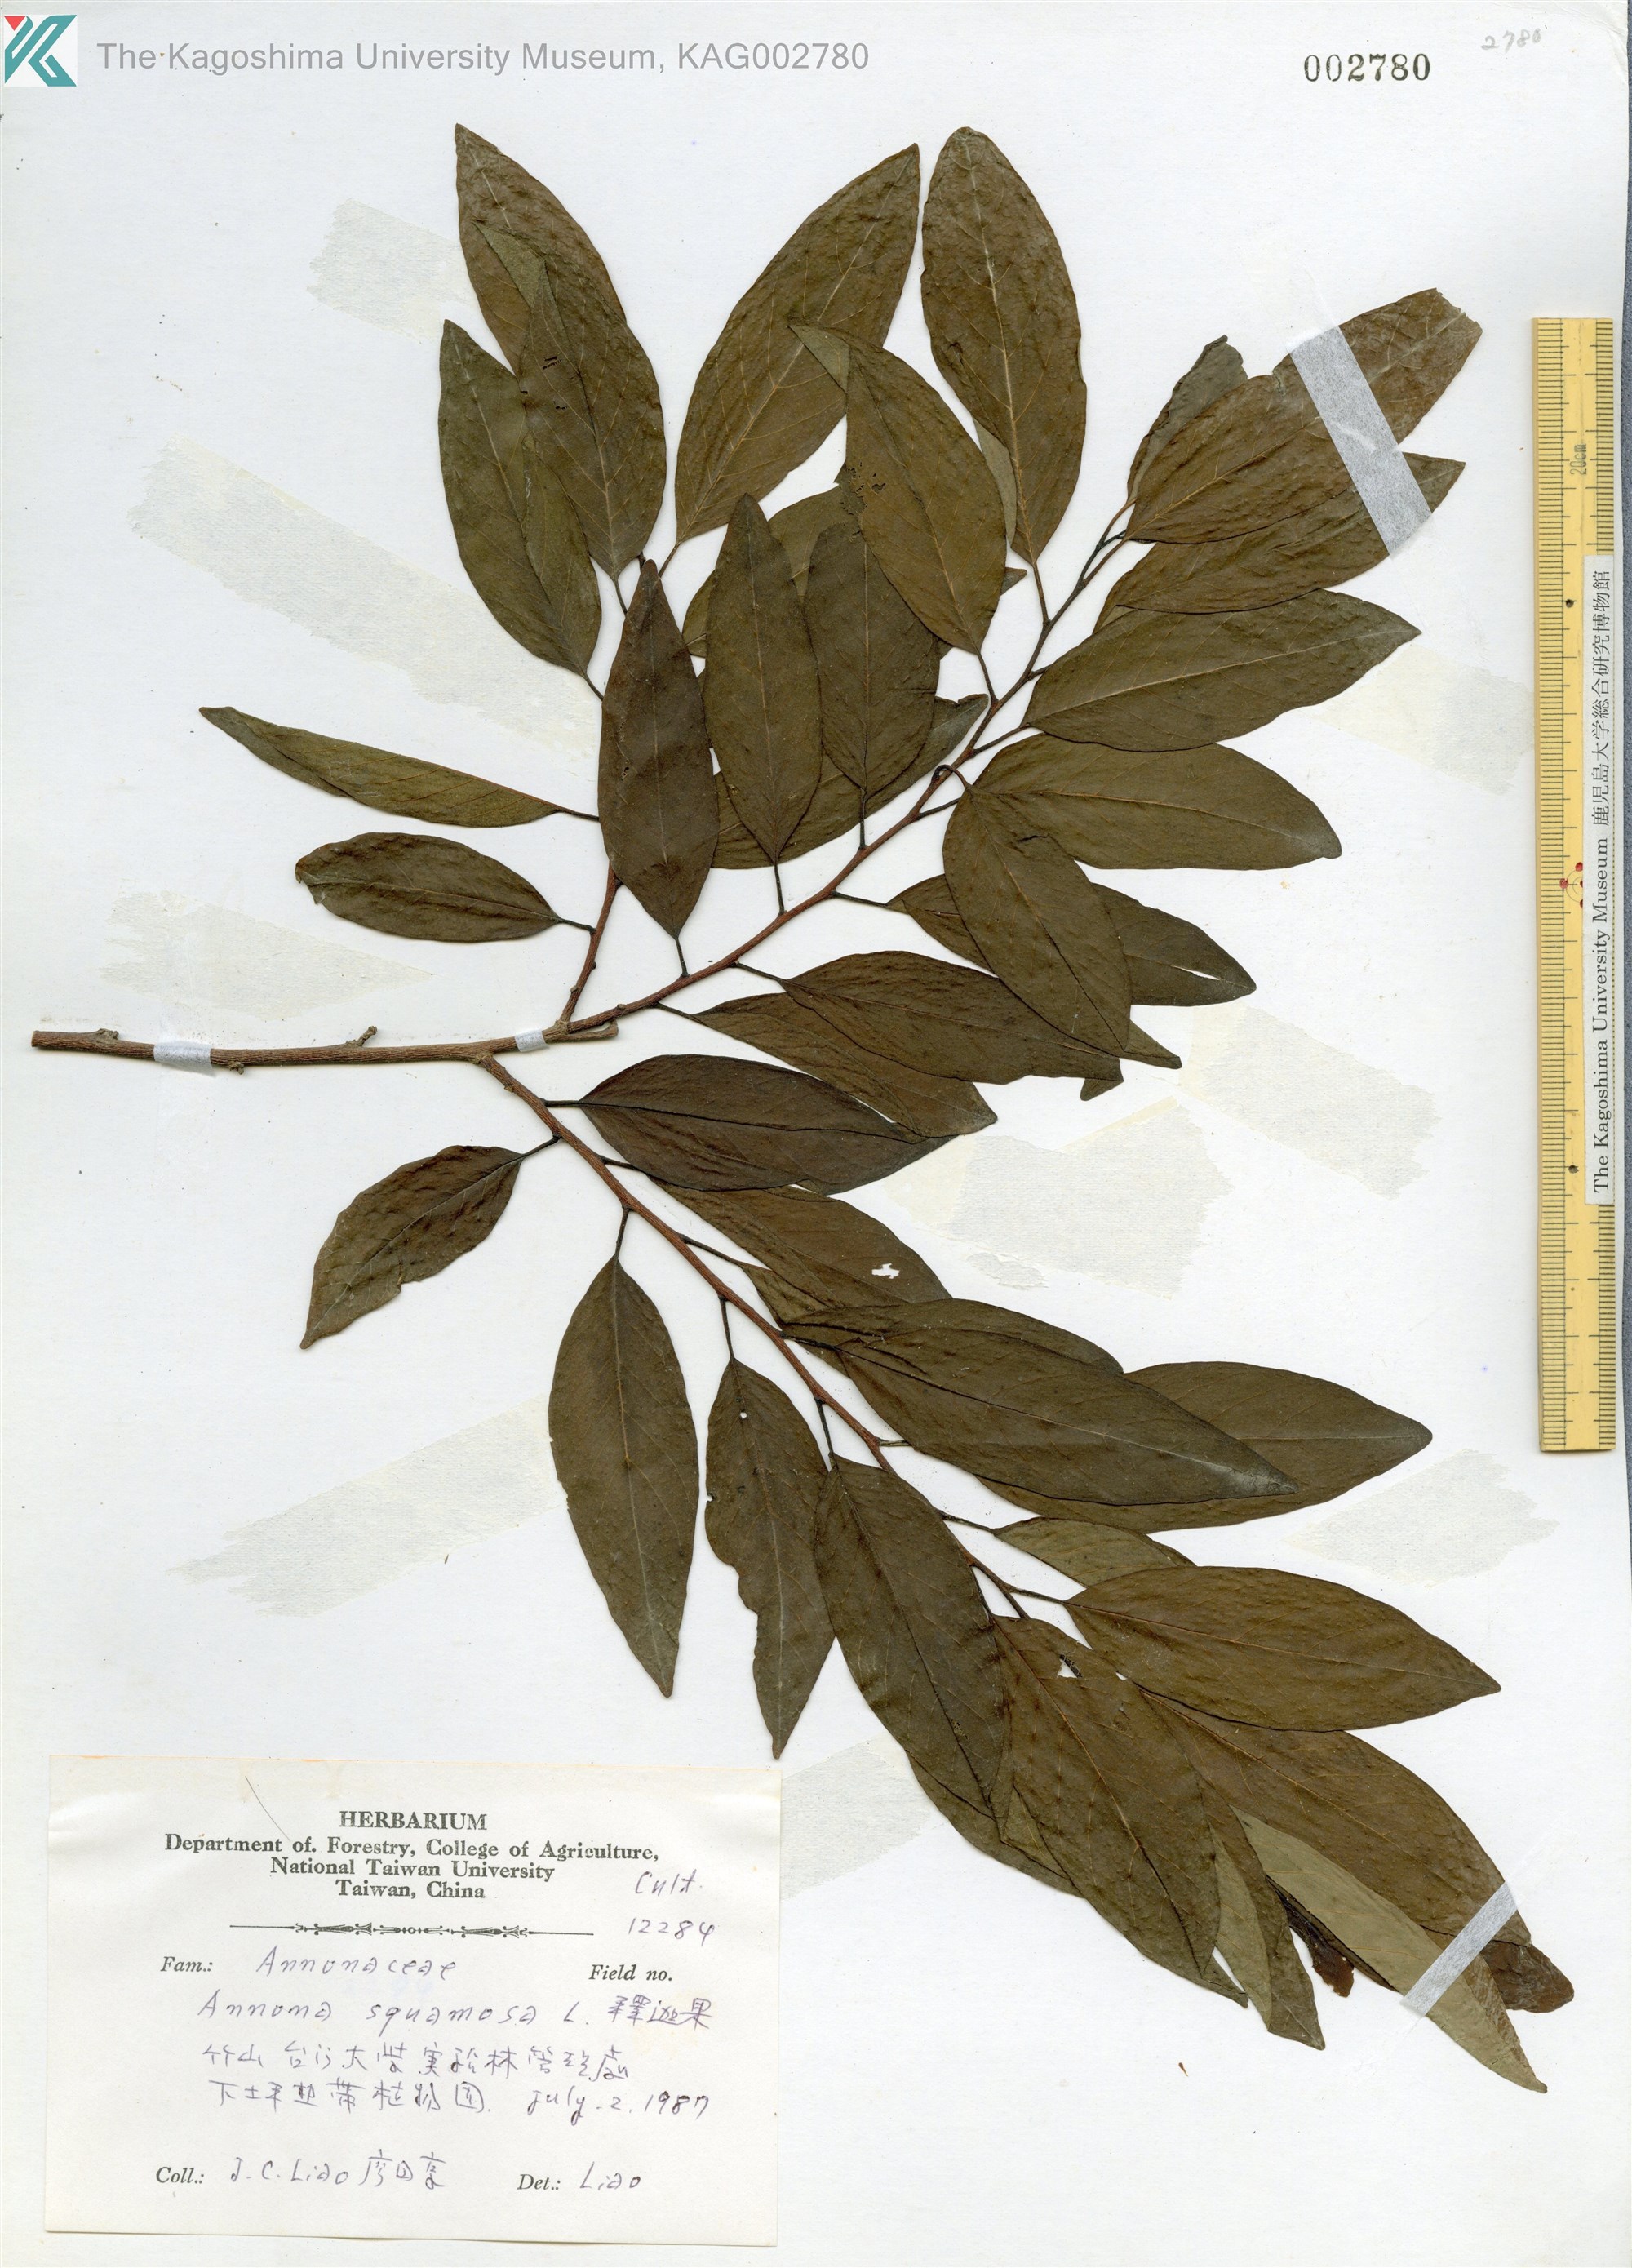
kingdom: Plantae
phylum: Tracheophyta
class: Magnoliopsida
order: Magnoliales
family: Annonaceae
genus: Annona
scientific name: Annona squamosa
